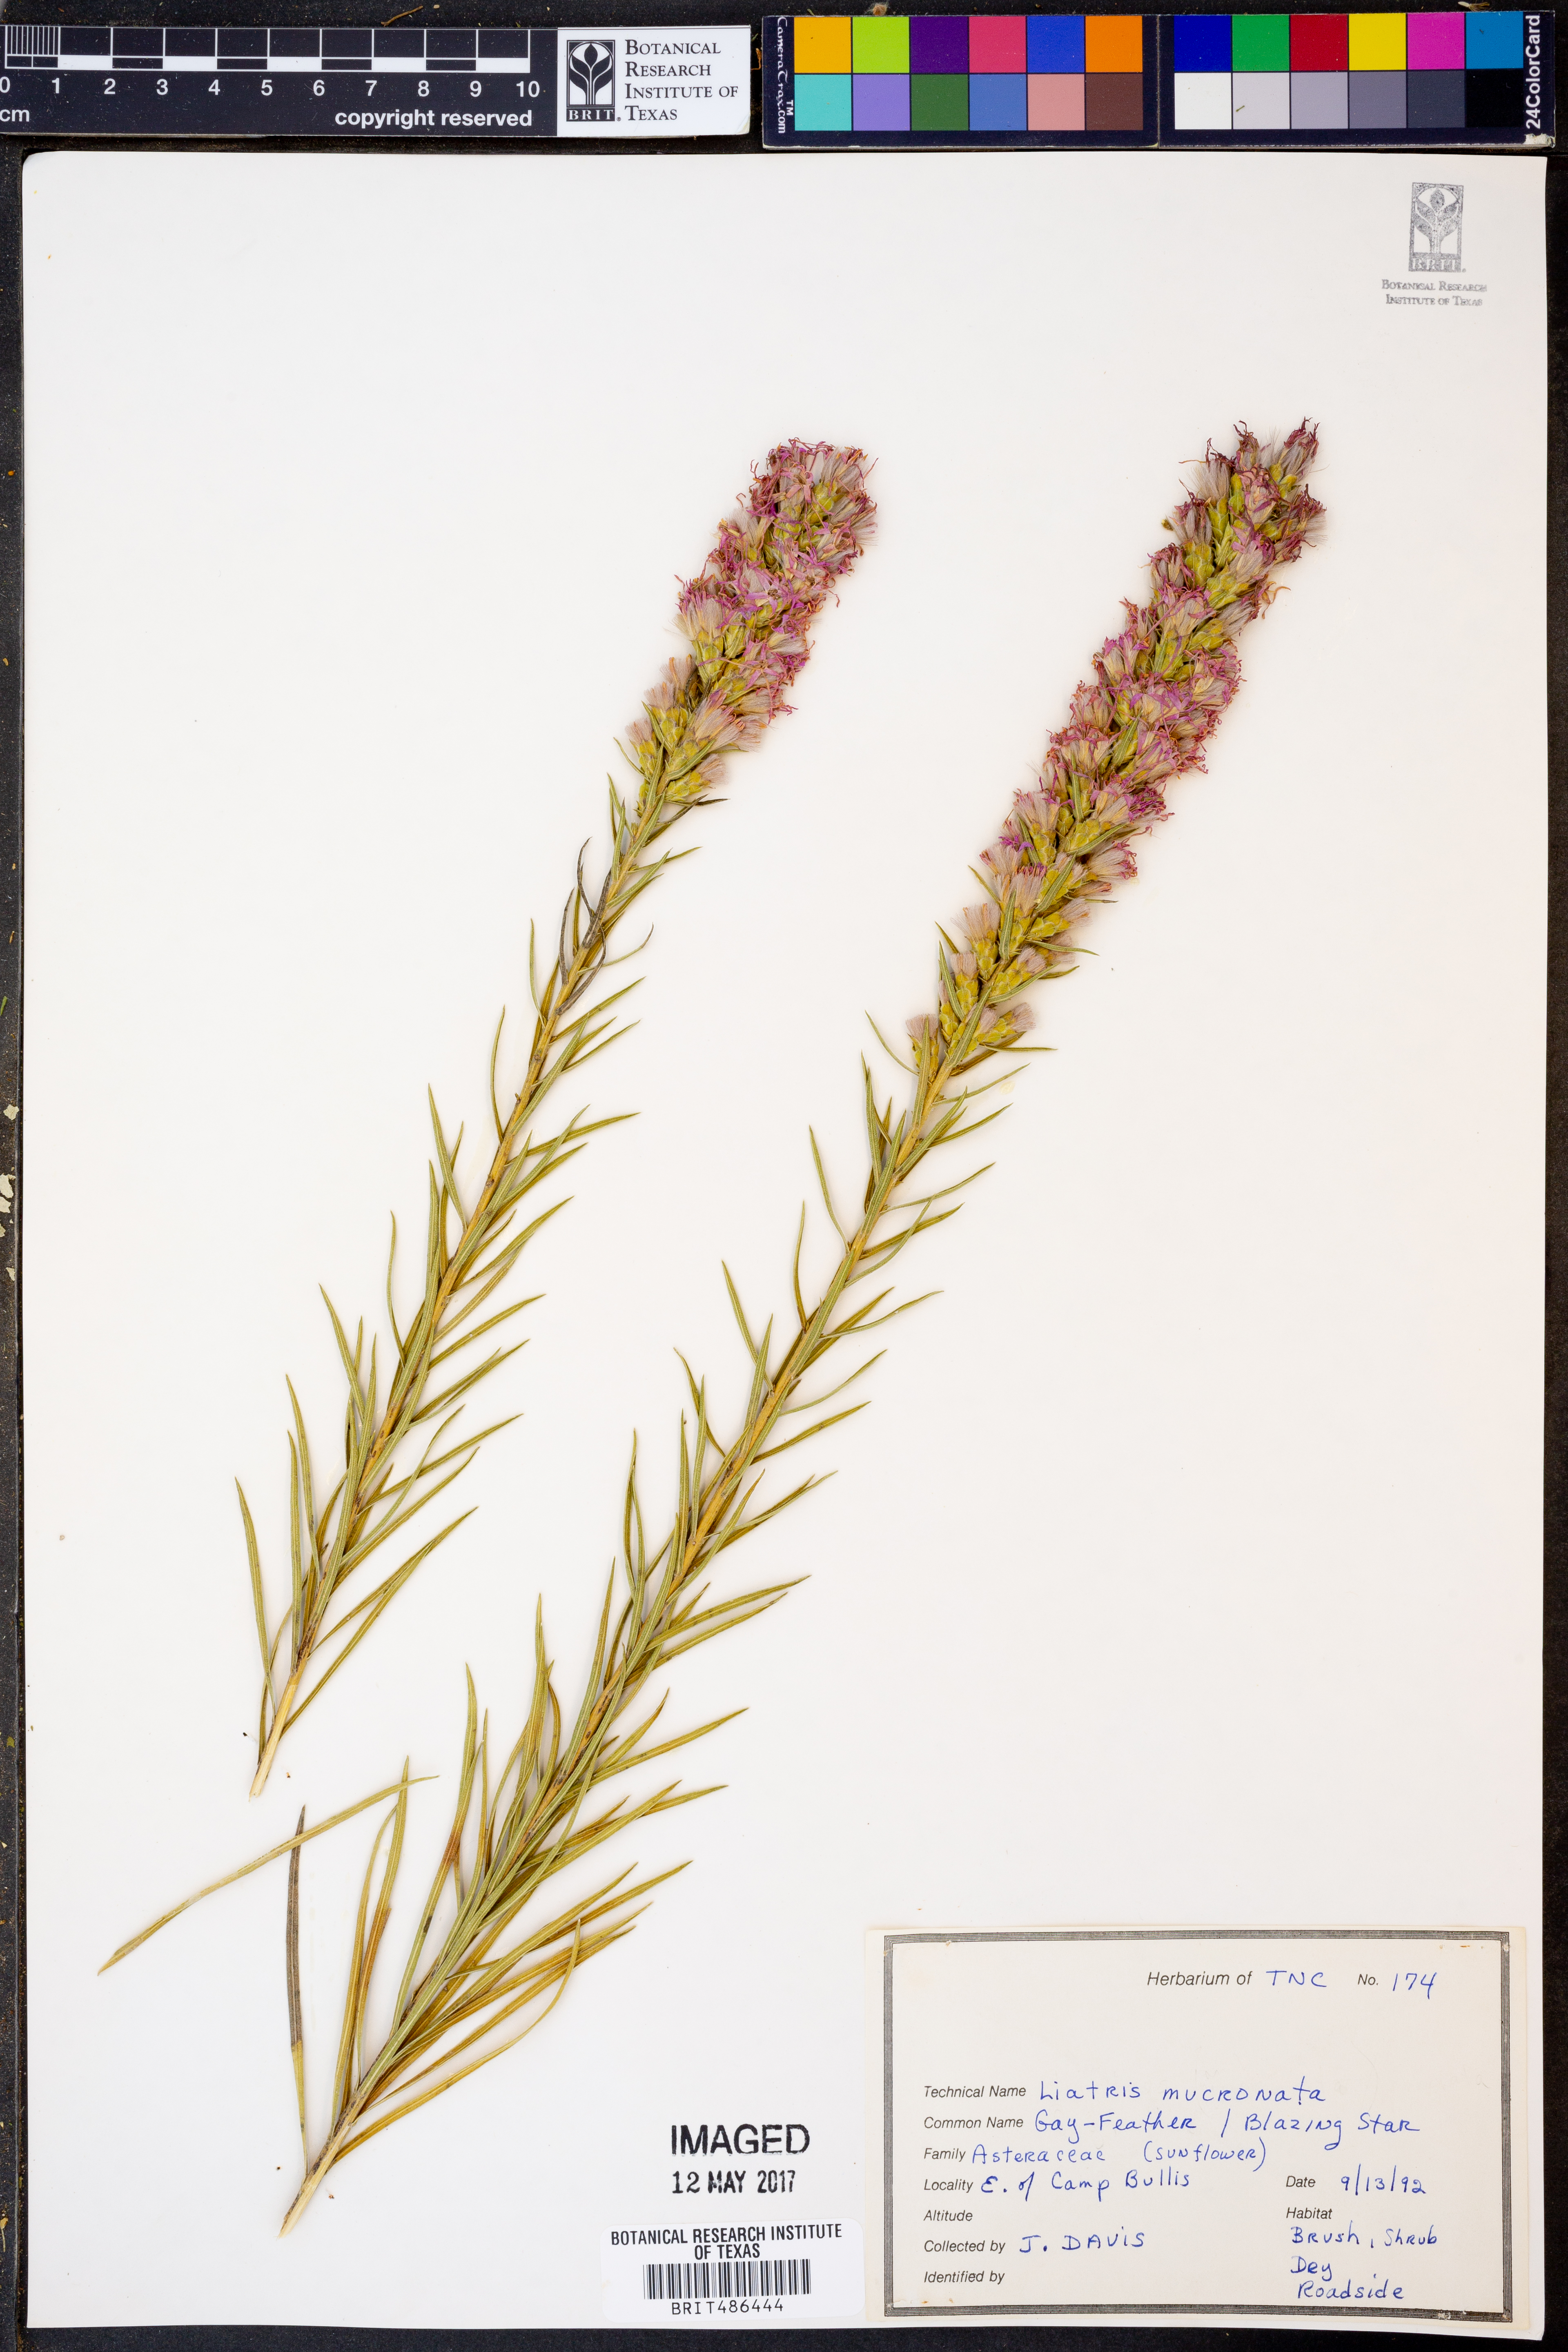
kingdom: Plantae
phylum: Tracheophyta
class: Magnoliopsida
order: Asterales
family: Asteraceae
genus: Liatris
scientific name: Liatris mucronata
